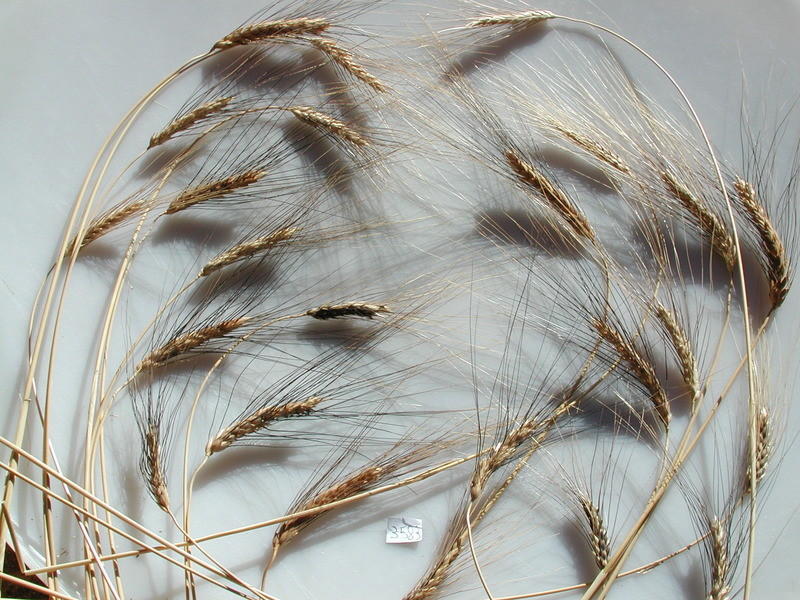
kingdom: Plantae
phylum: Tracheophyta
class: Liliopsida
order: Poales
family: Poaceae
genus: Triticum
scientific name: Triticum dicoccoides
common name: Wheat
